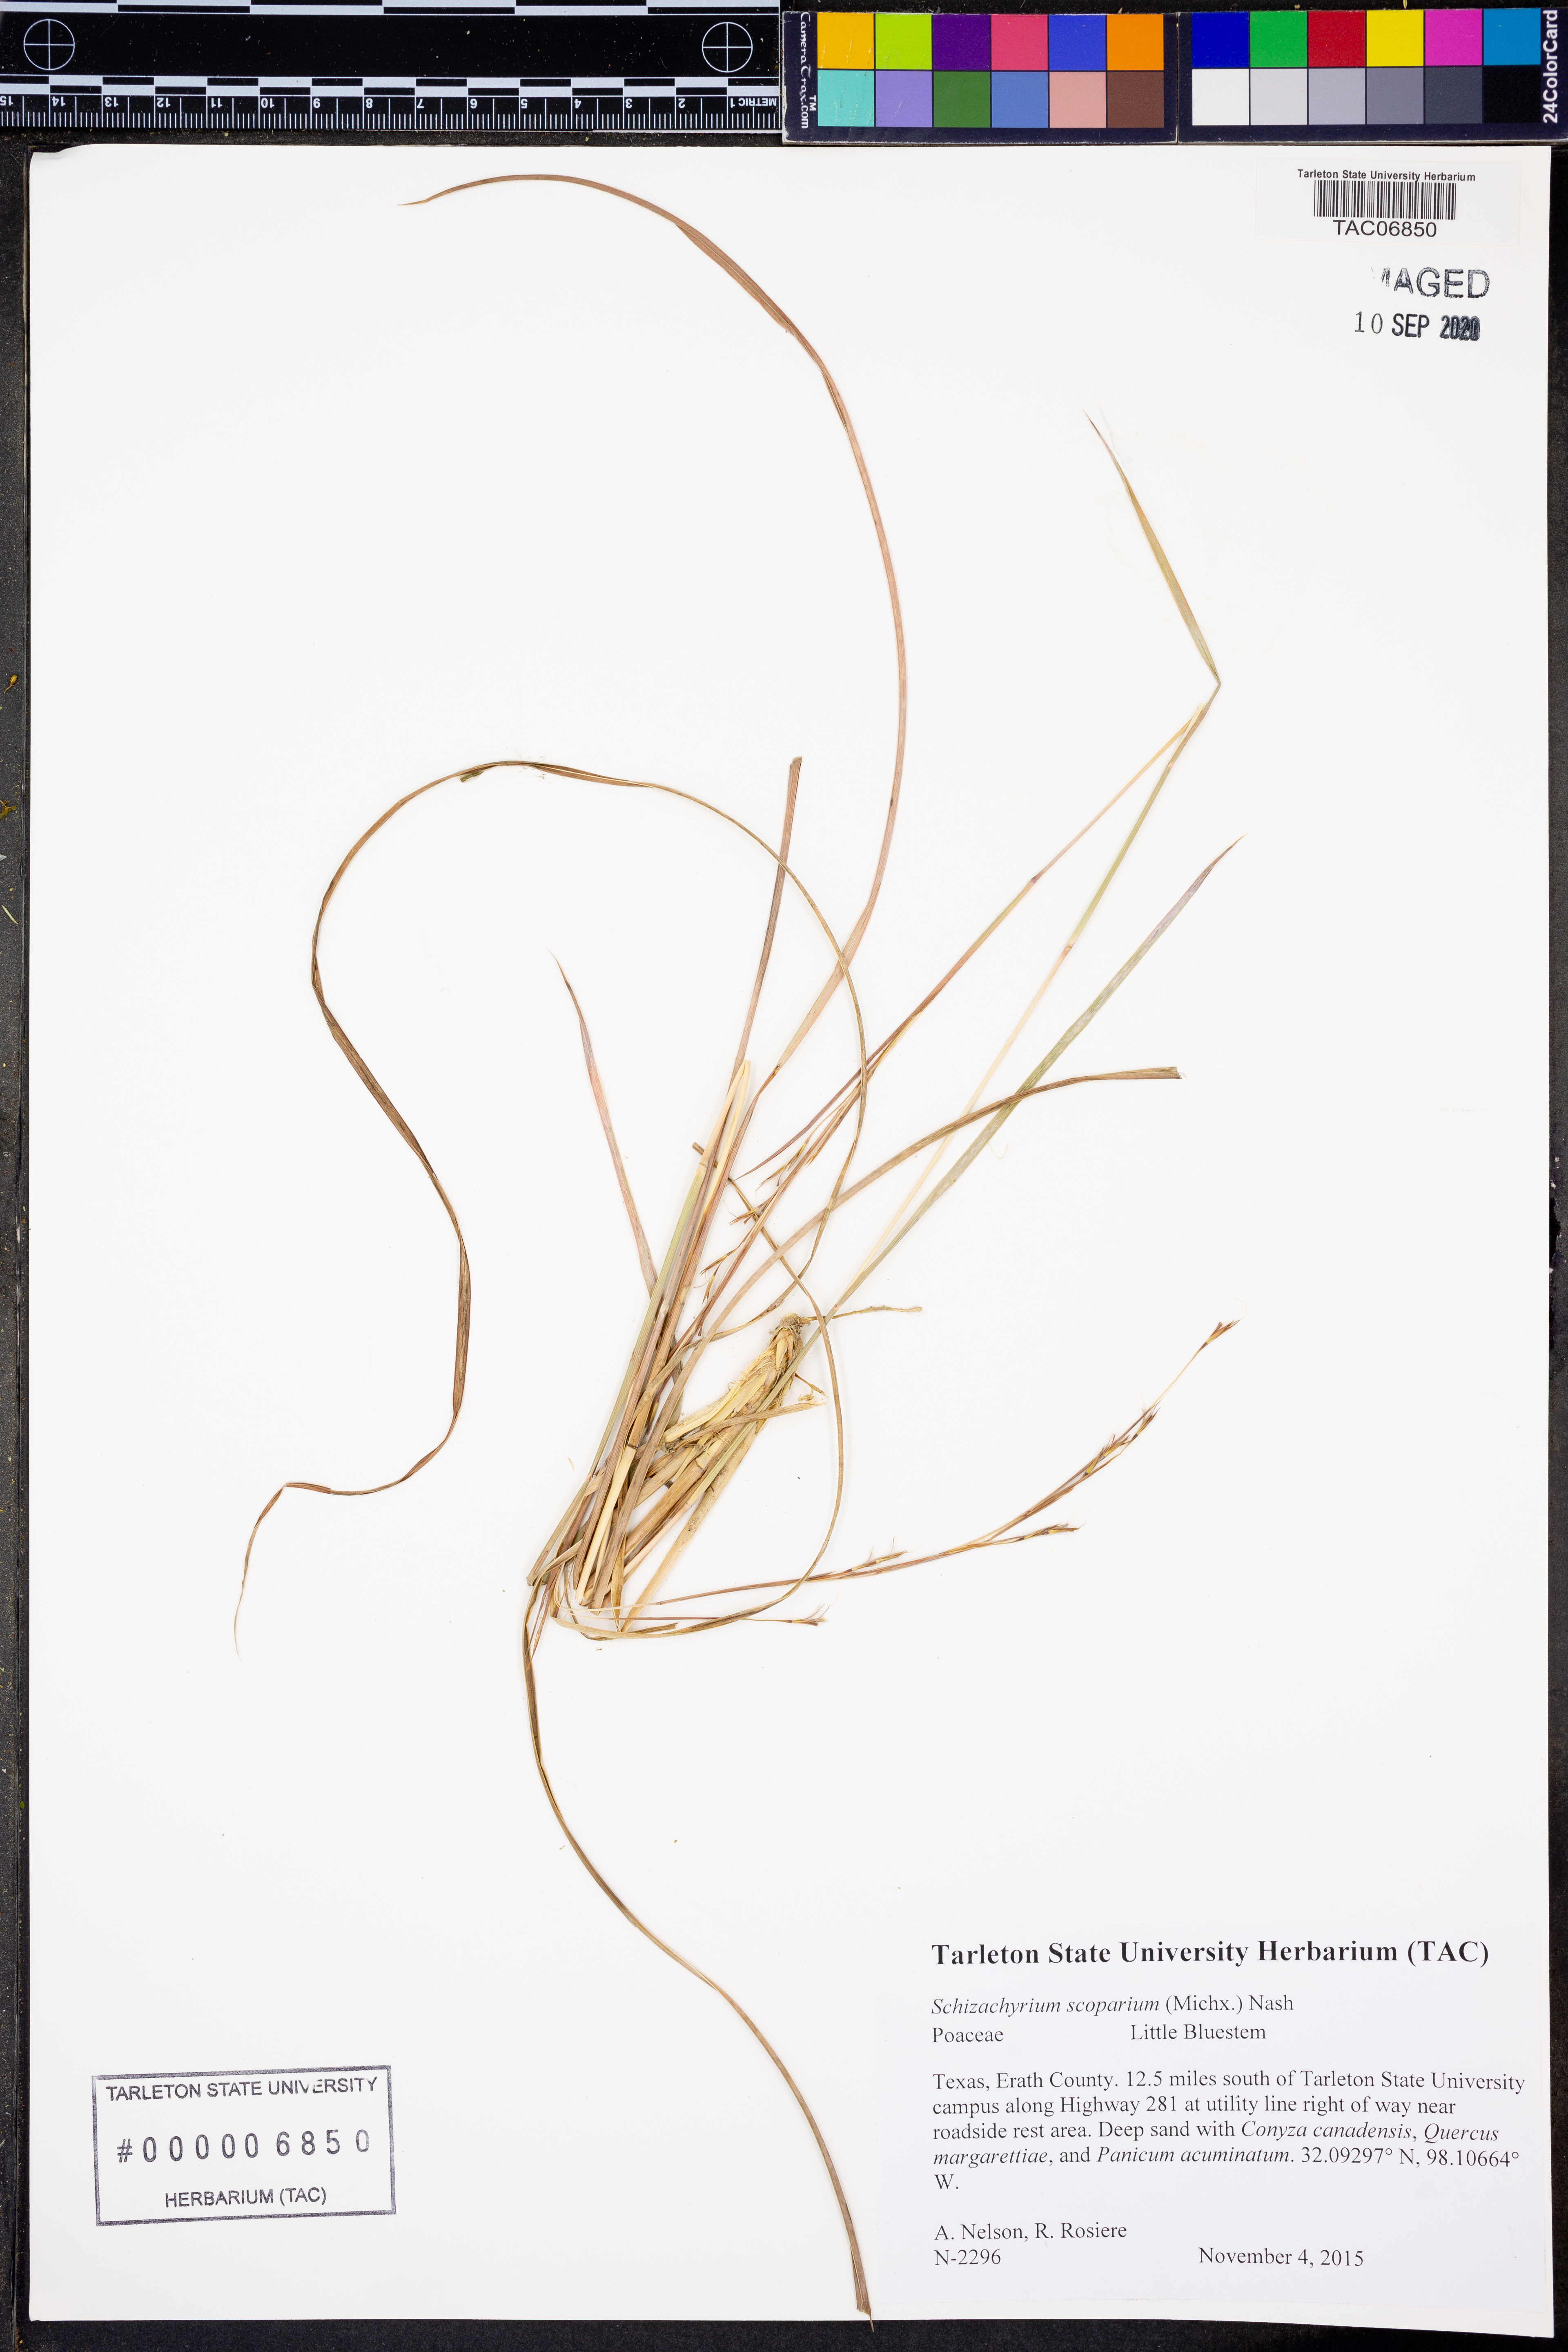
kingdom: Plantae
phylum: Tracheophyta
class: Liliopsida
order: Poales
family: Poaceae
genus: Schizachyrium
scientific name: Schizachyrium scoparium
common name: Little bluestem
